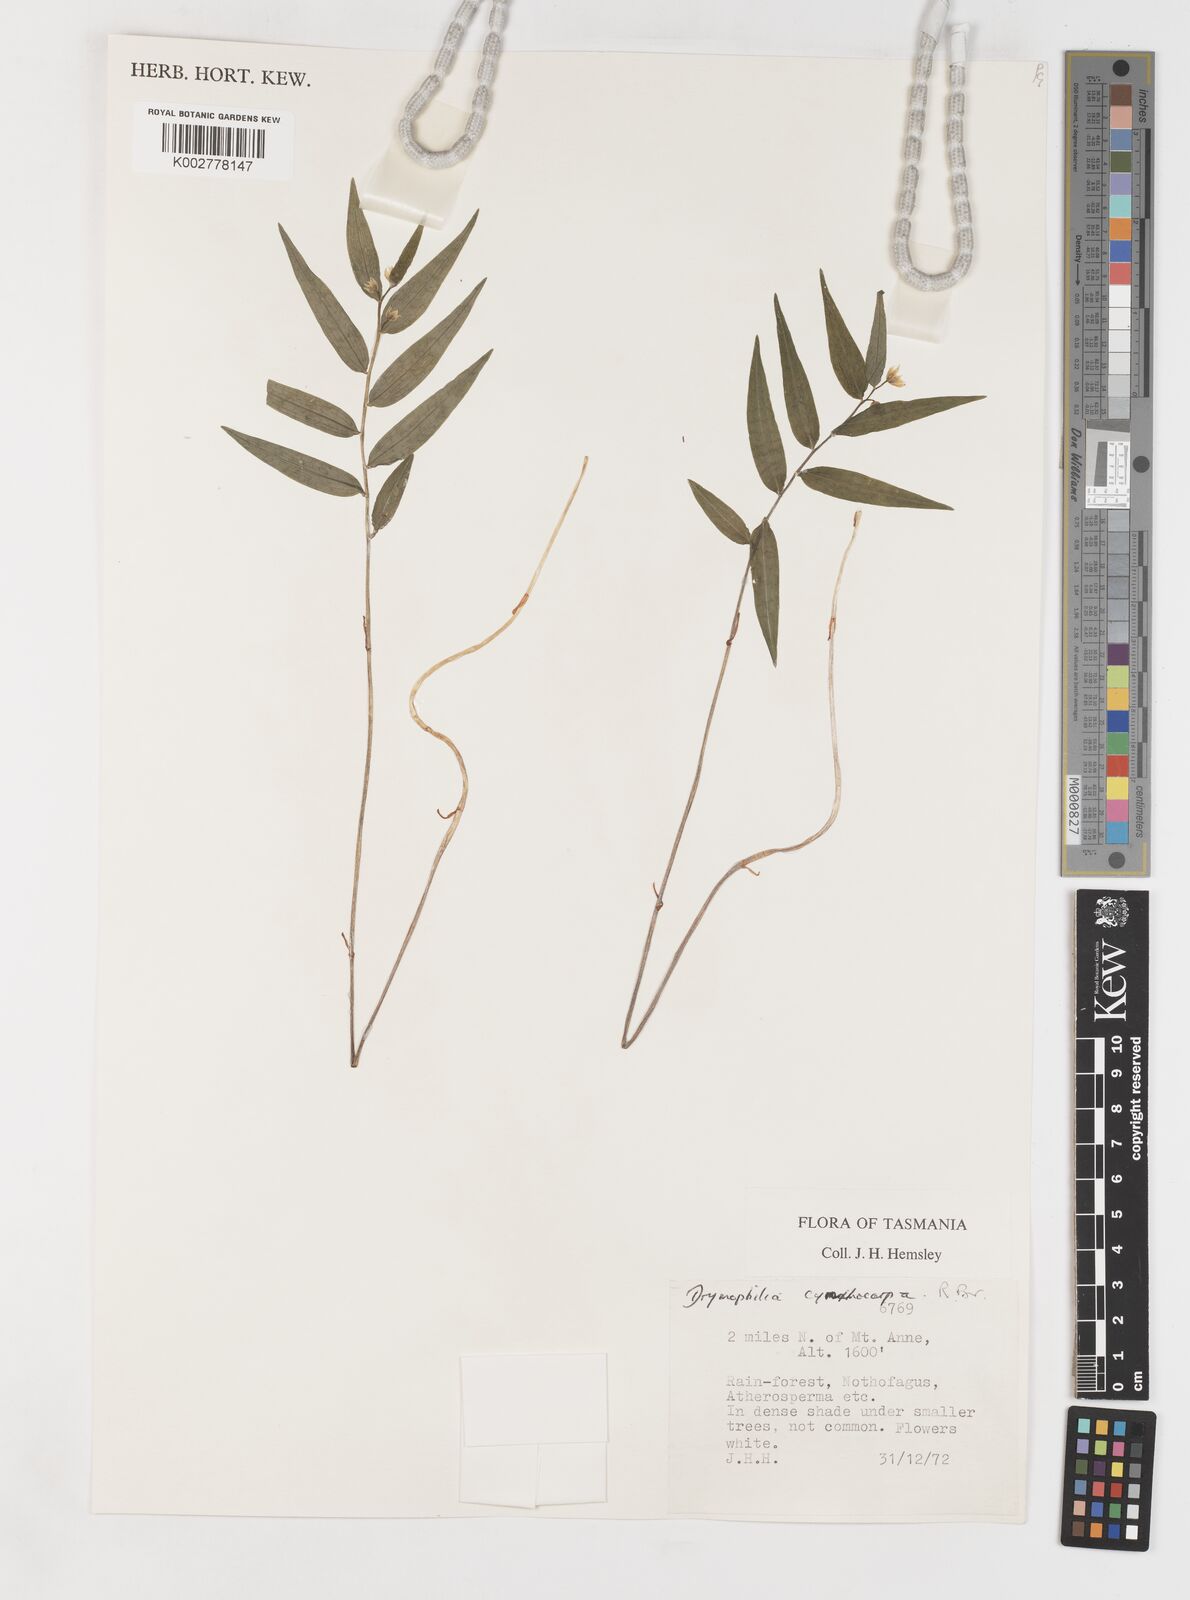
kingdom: Plantae
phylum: Tracheophyta
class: Liliopsida
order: Liliales
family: Alstroemeriaceae
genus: Drymophila
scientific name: Drymophila cyanocarpa
